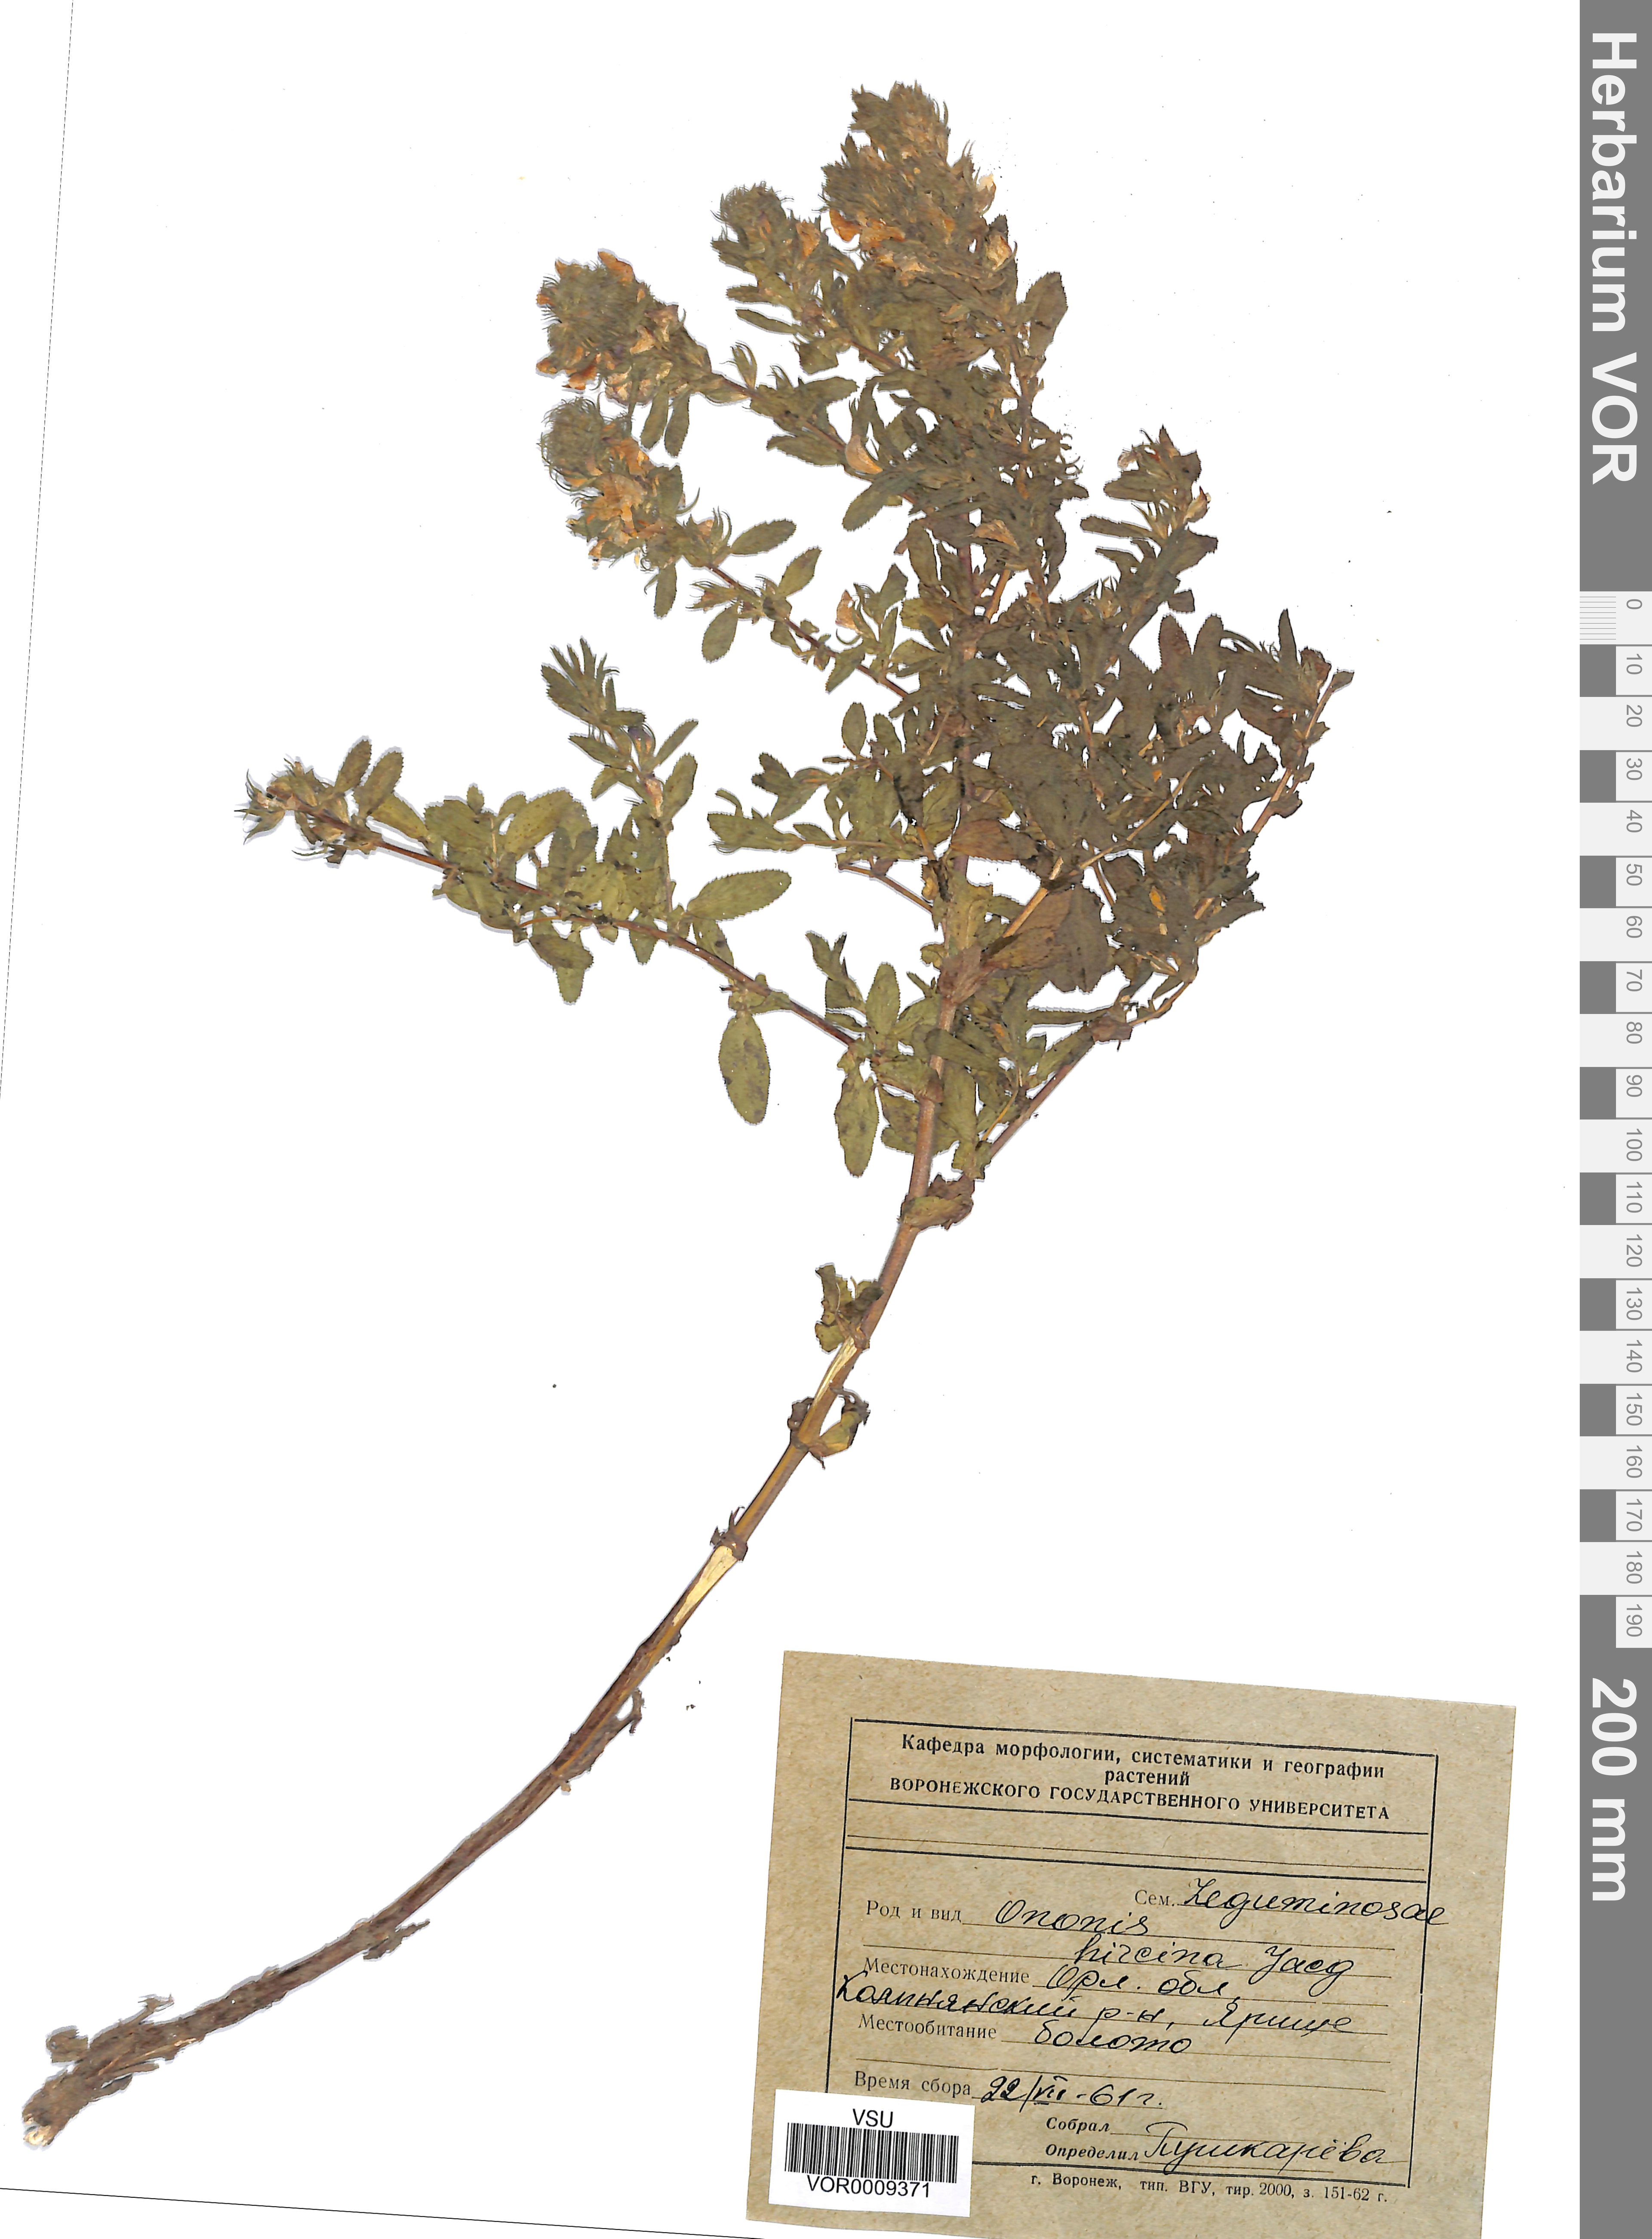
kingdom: Plantae
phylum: Tracheophyta
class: Magnoliopsida
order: Fabales
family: Fabaceae
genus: Ononis
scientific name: Ononis arvensis
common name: Field restharrow
